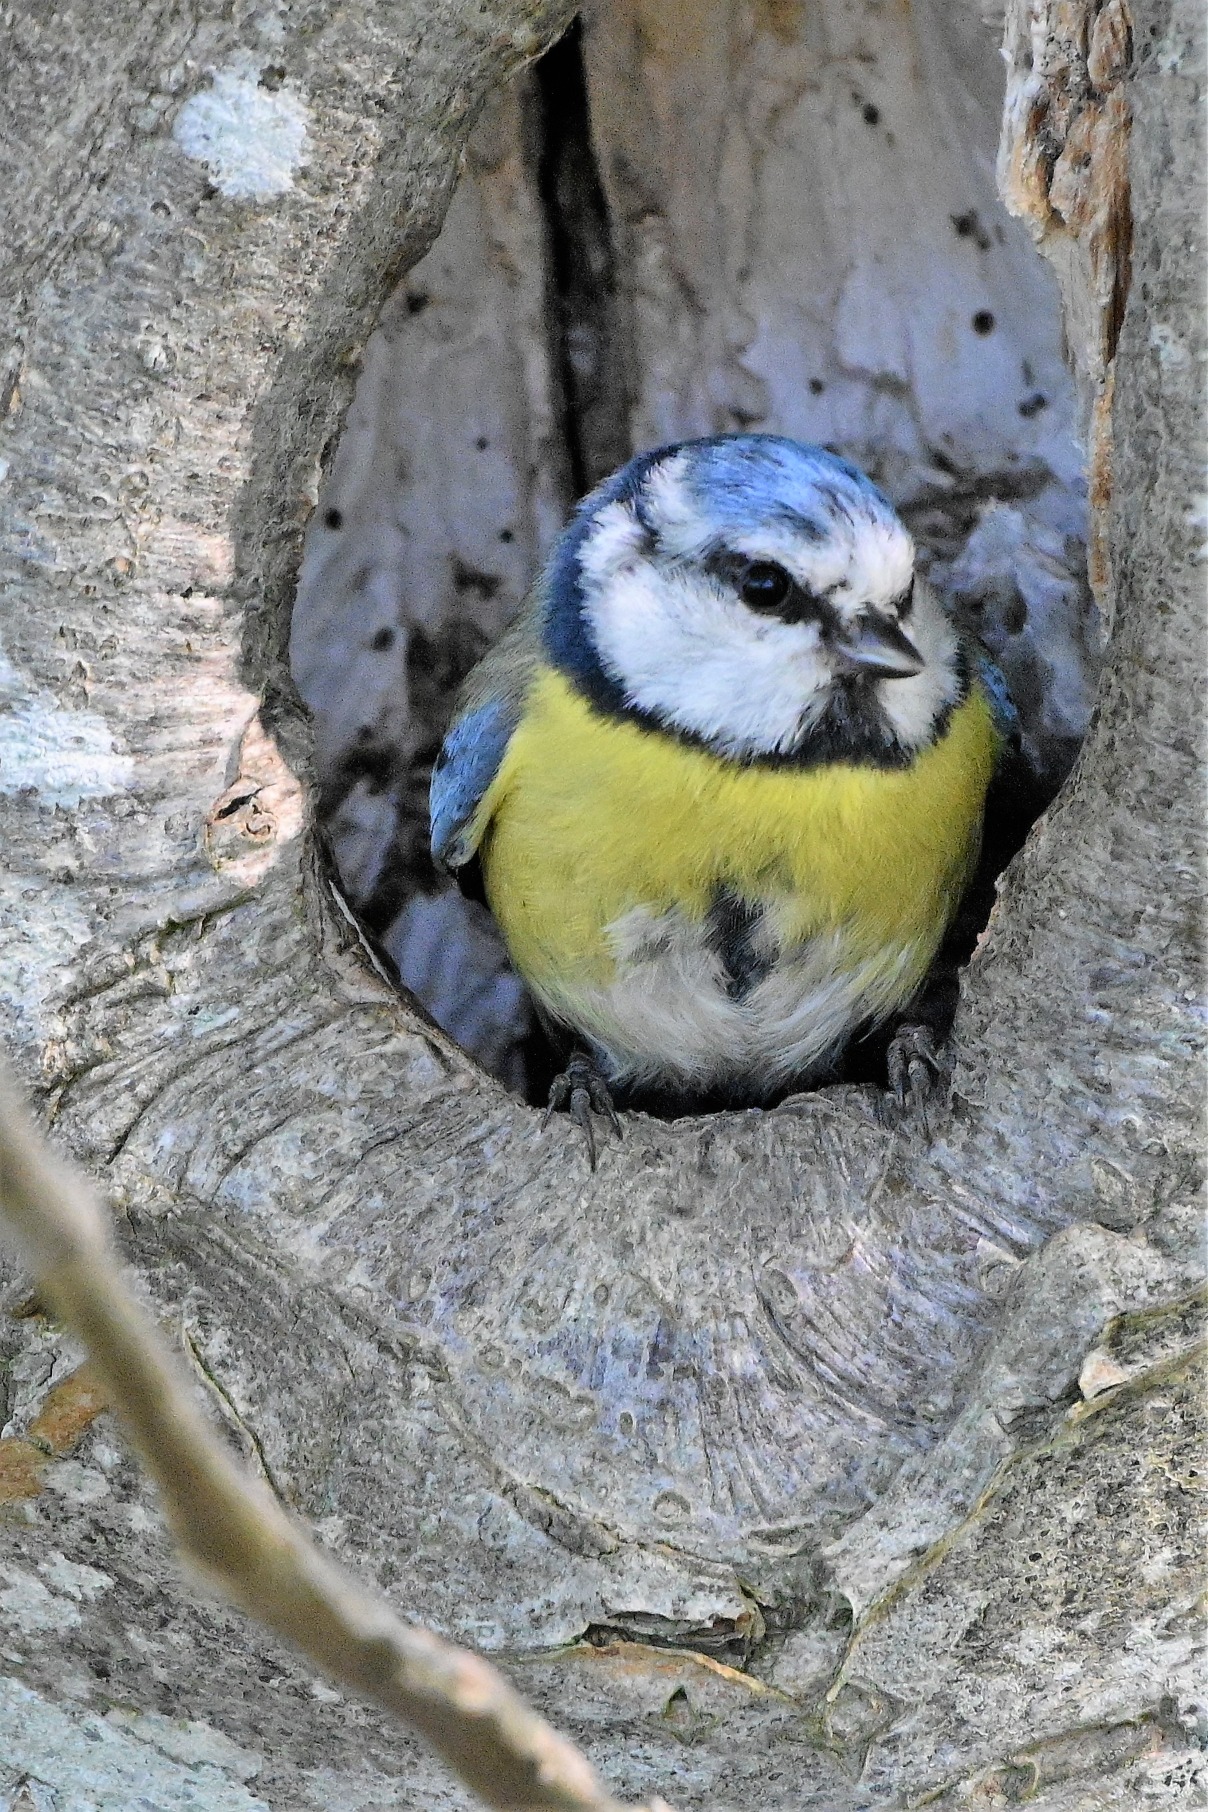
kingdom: Animalia
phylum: Chordata
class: Aves
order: Passeriformes
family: Paridae
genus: Cyanistes
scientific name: Cyanistes caeruleus
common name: Blåmejse
